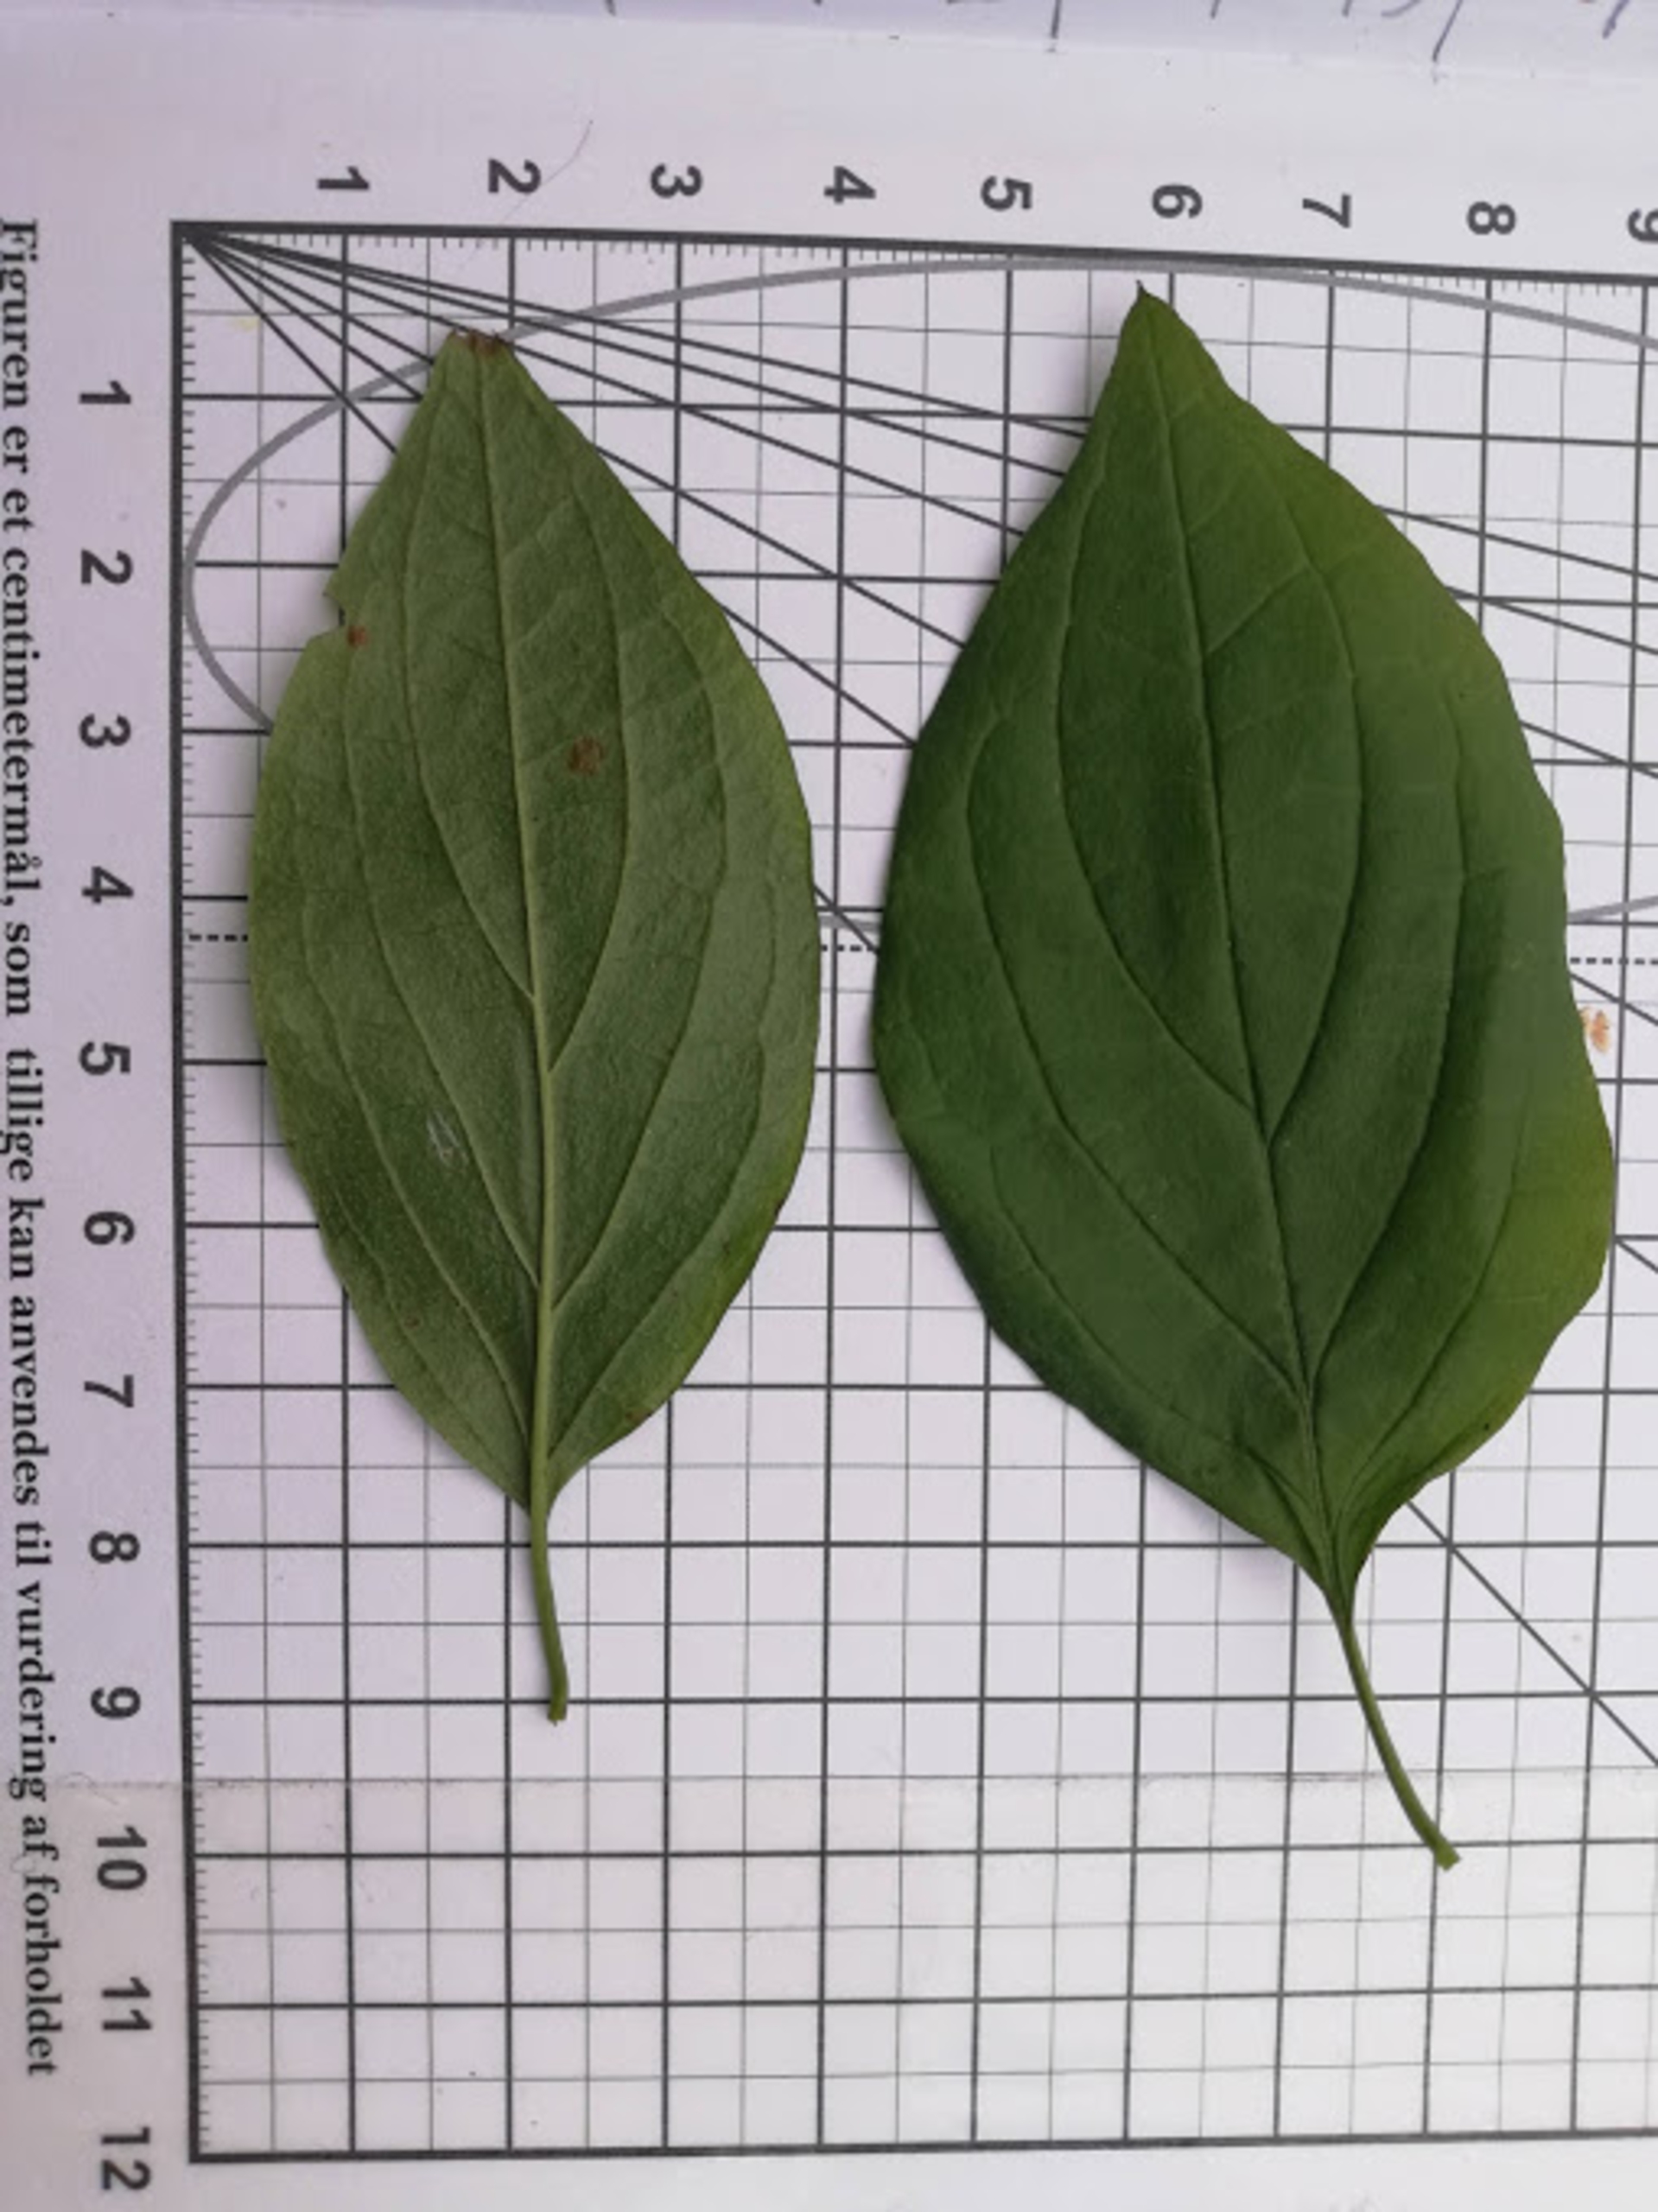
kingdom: Plantae
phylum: Tracheophyta
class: Magnoliopsida
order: Cornales
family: Cornaceae
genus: Cornus
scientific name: Cornus
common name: Kornelslægten
